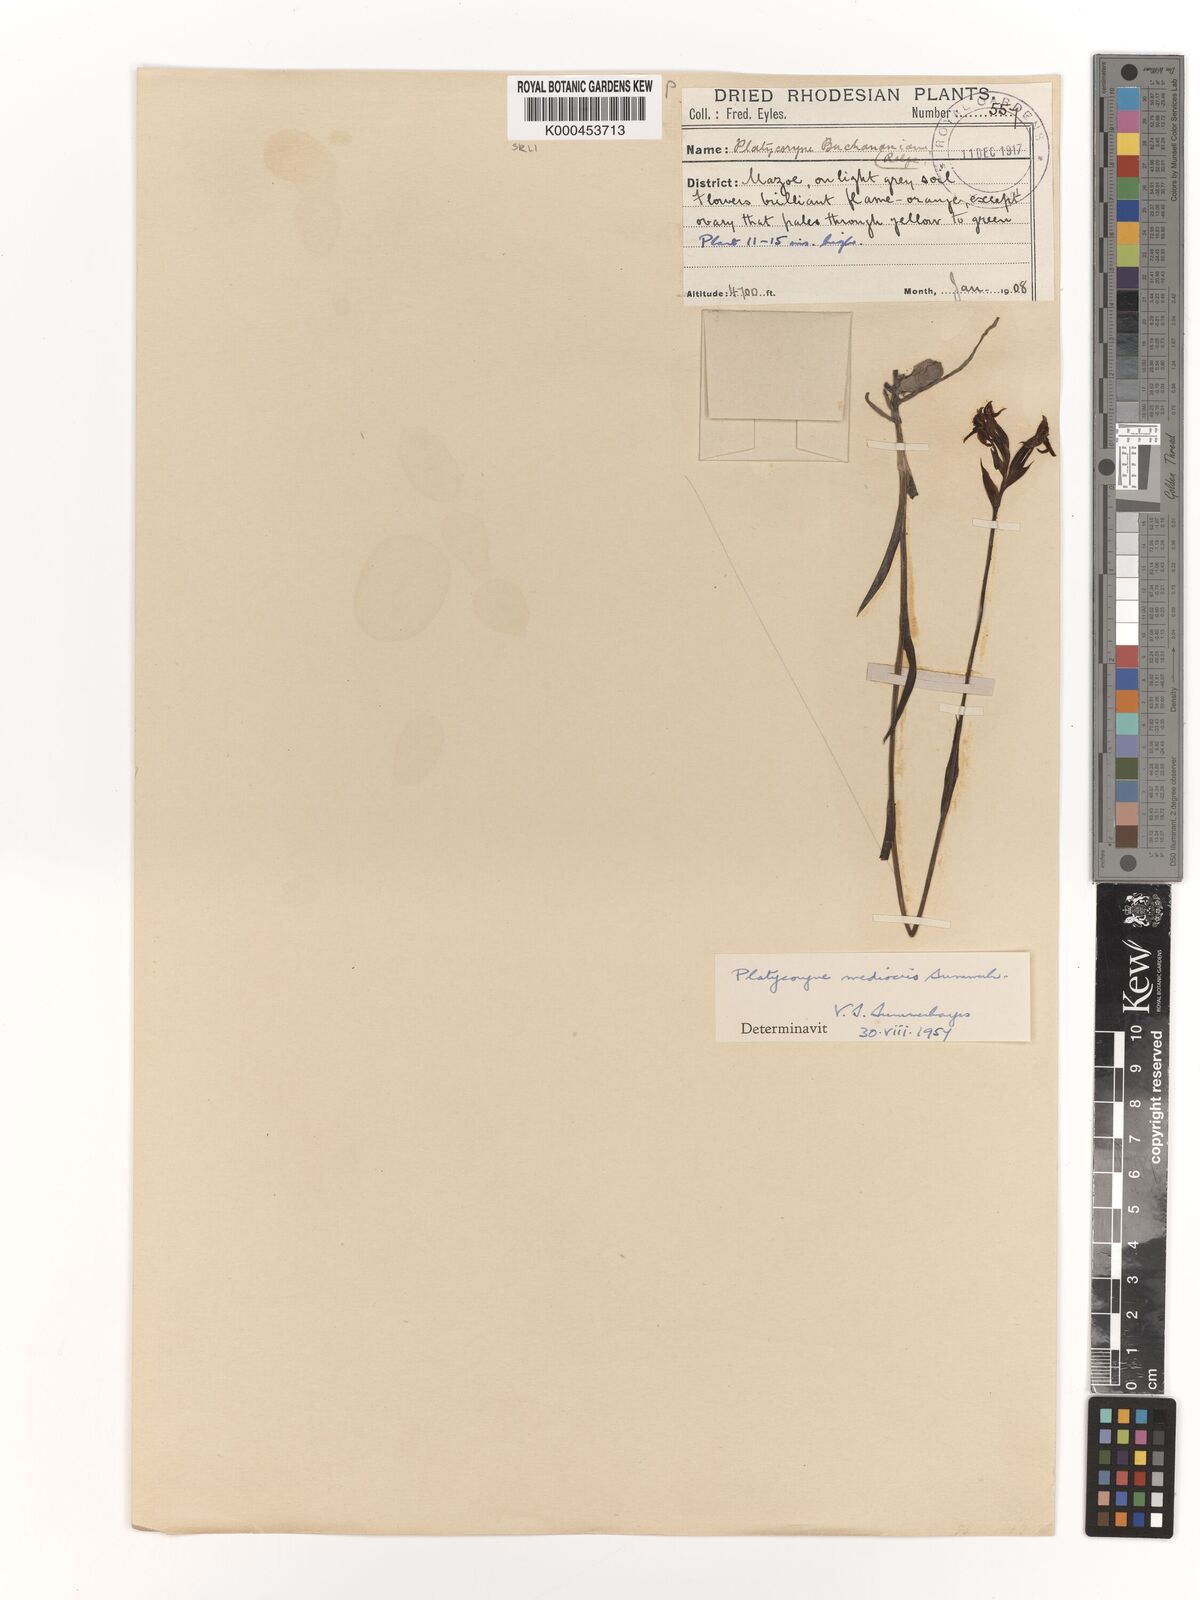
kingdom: Plantae
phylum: Tracheophyta
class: Liliopsida
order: Asparagales
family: Orchidaceae
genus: Platycoryne
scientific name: Platycoryne mediocris
